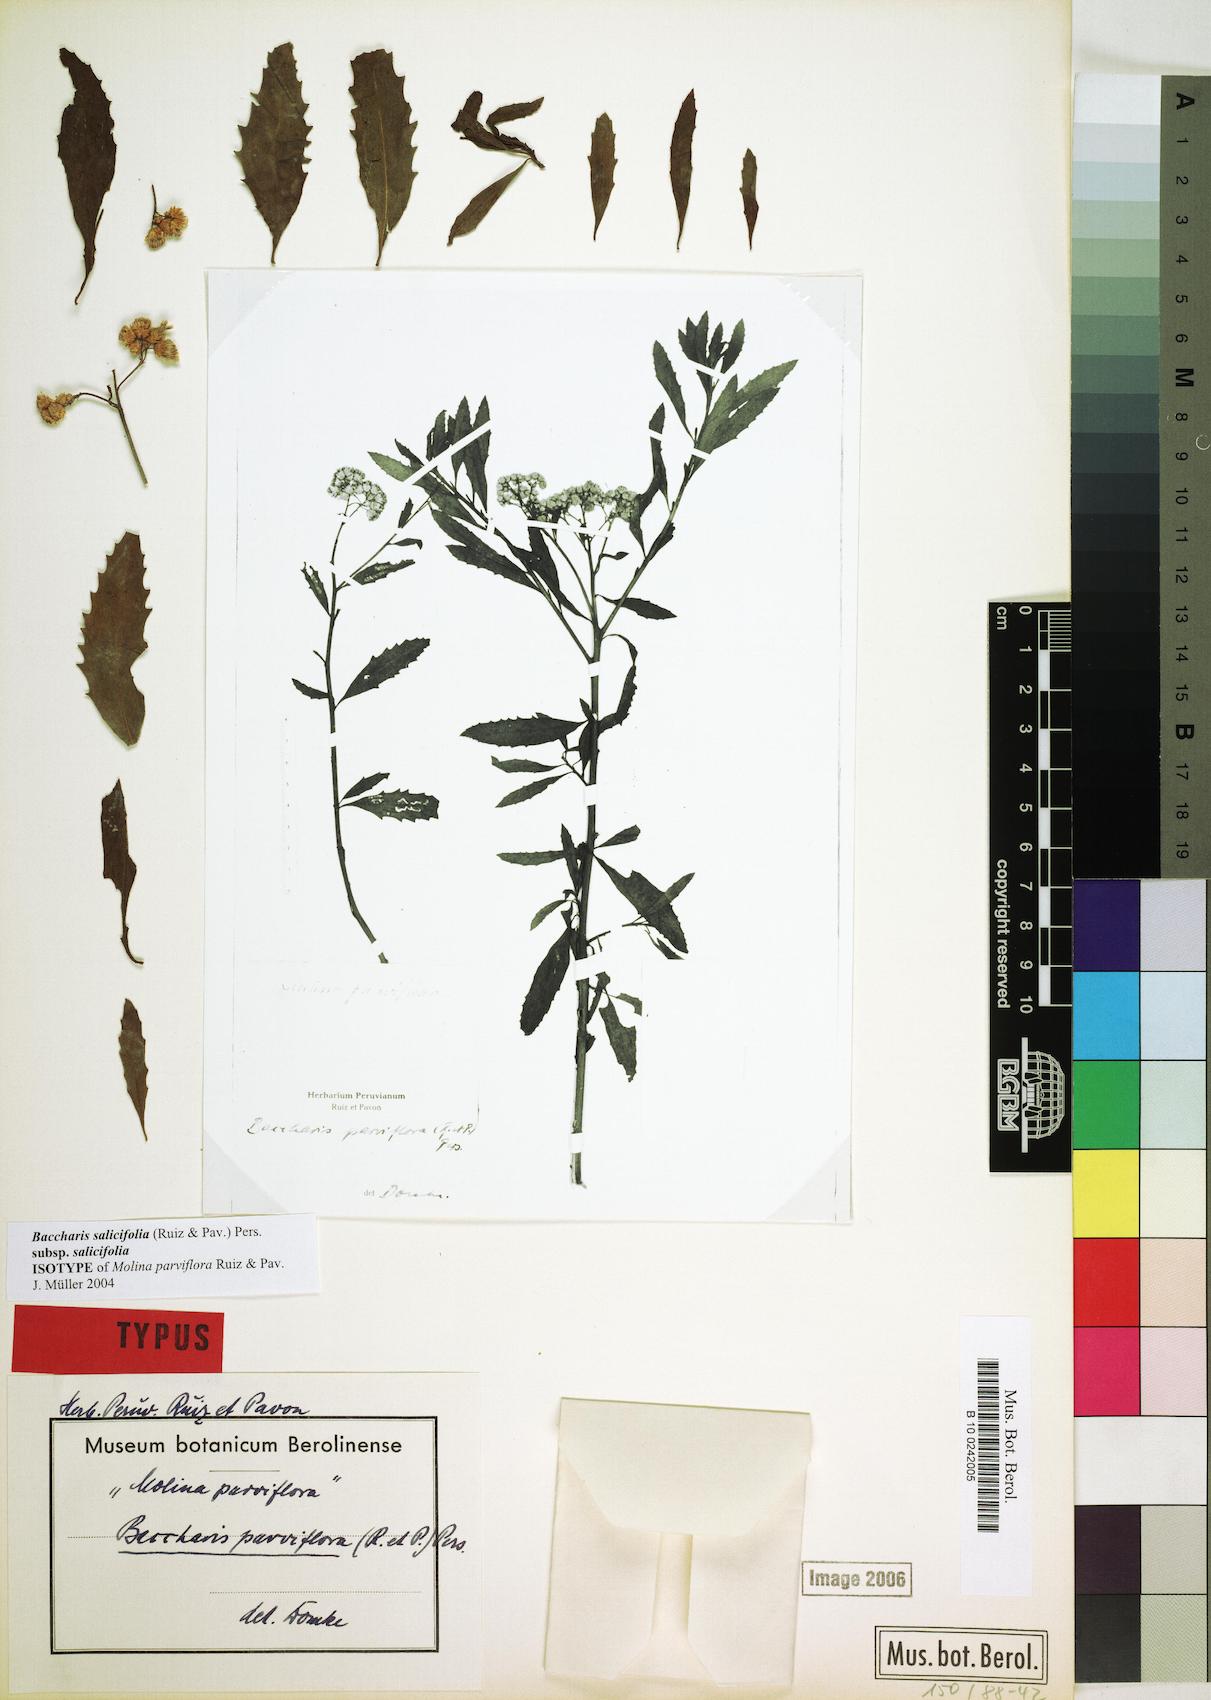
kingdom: Plantae
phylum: Tracheophyta
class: Magnoliopsida
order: Asterales
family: Asteraceae
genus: Baccharis
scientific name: Baccharis salicifolia
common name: Sticky baccharis
